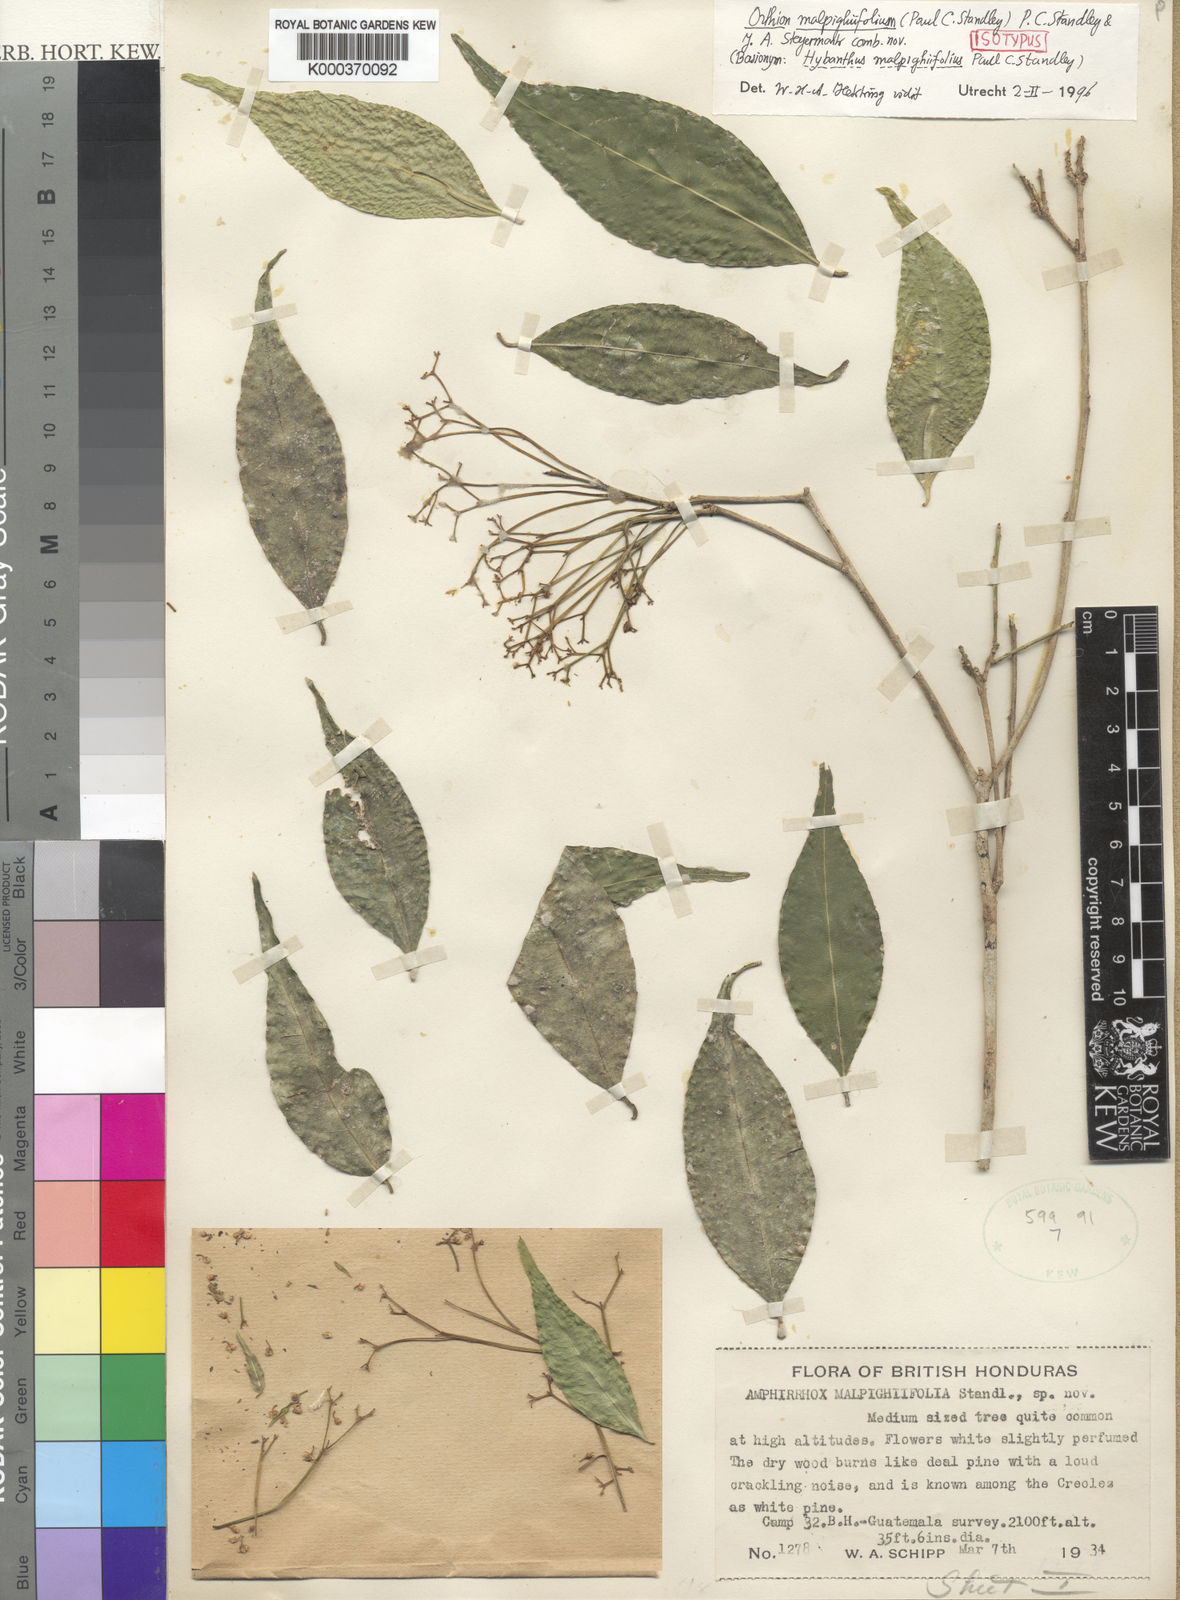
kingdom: Plantae
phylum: Tracheophyta
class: Magnoliopsida
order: Malpighiales
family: Violaceae
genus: Orthion
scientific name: Orthion malpighiifolium
